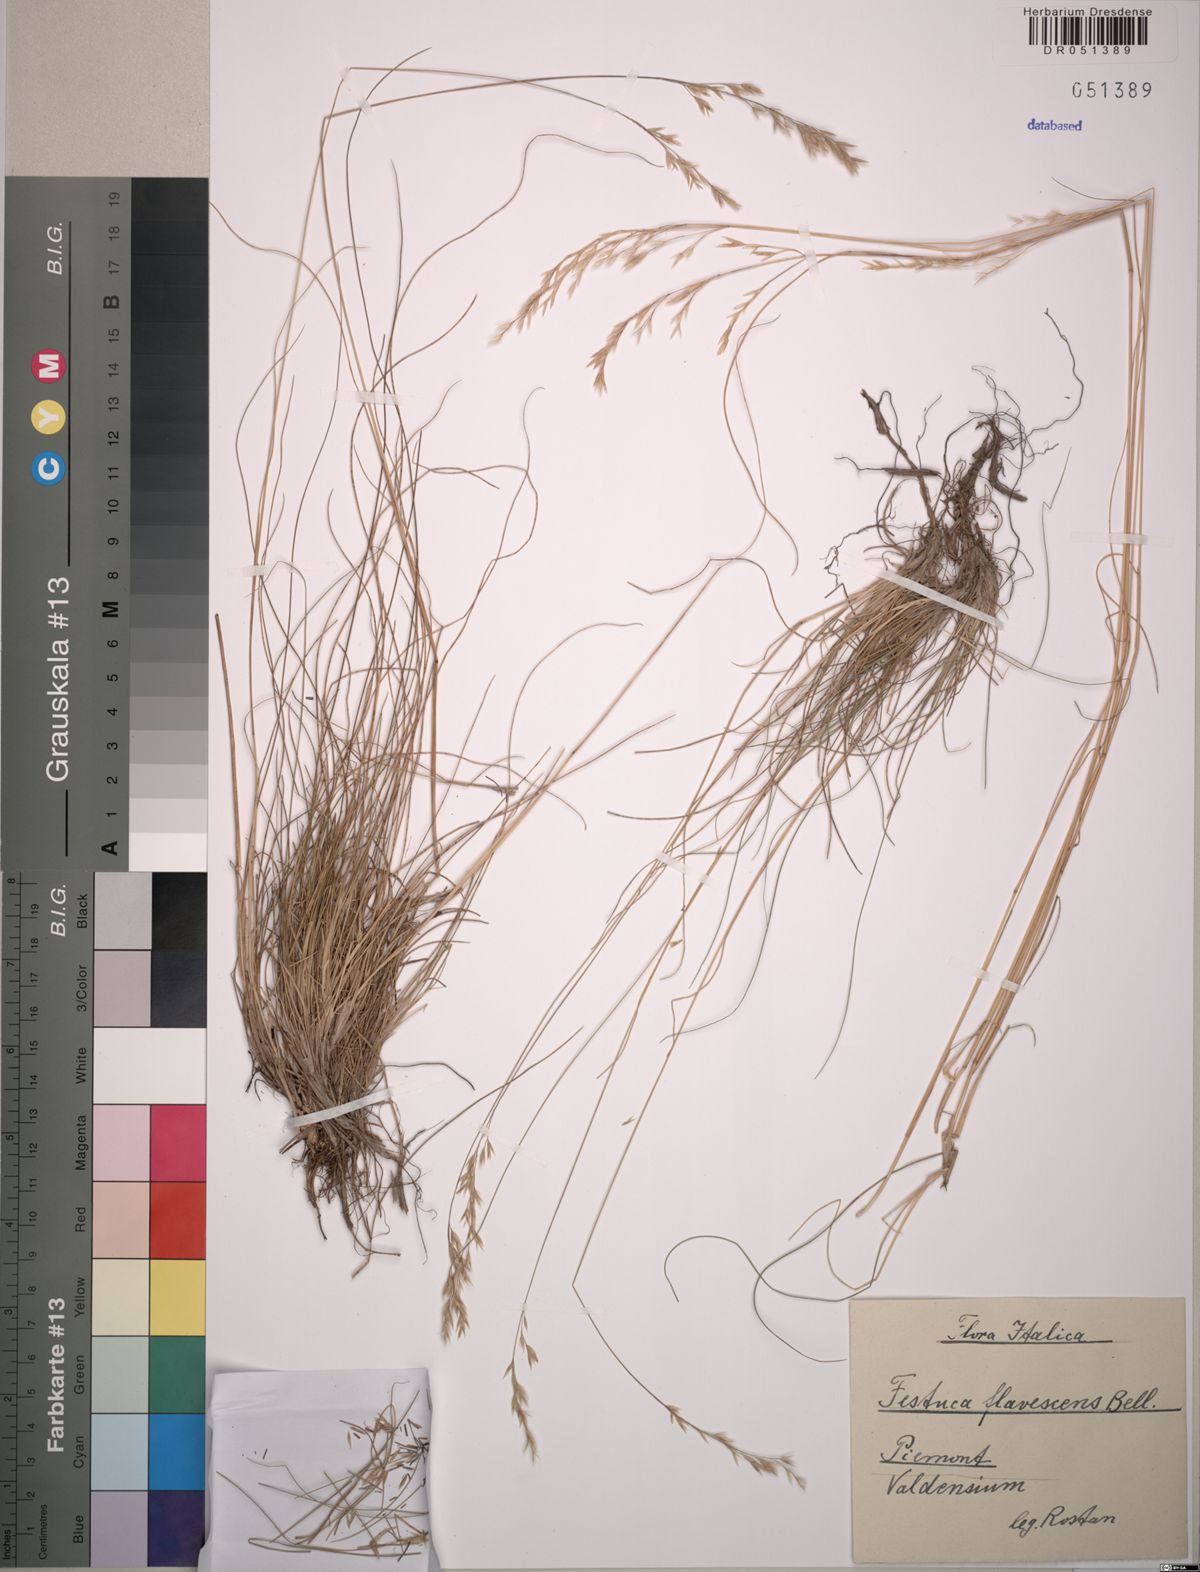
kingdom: Plantae
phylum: Tracheophyta
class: Liliopsida
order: Poales
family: Poaceae
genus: Festuca
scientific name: Festuca flavescens
